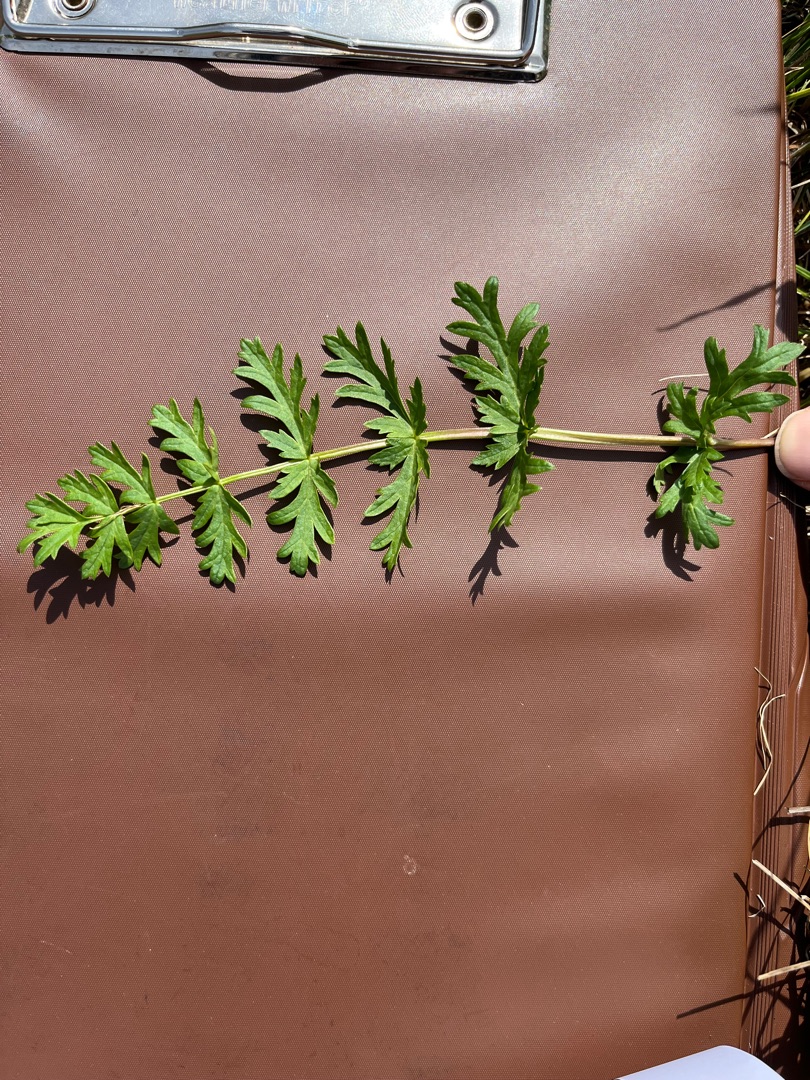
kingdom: Plantae
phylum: Tracheophyta
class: Magnoliopsida
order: Apiales
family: Apiaceae
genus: Pimpinella
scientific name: Pimpinella saxifraga
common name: Almindelig pimpinelle
